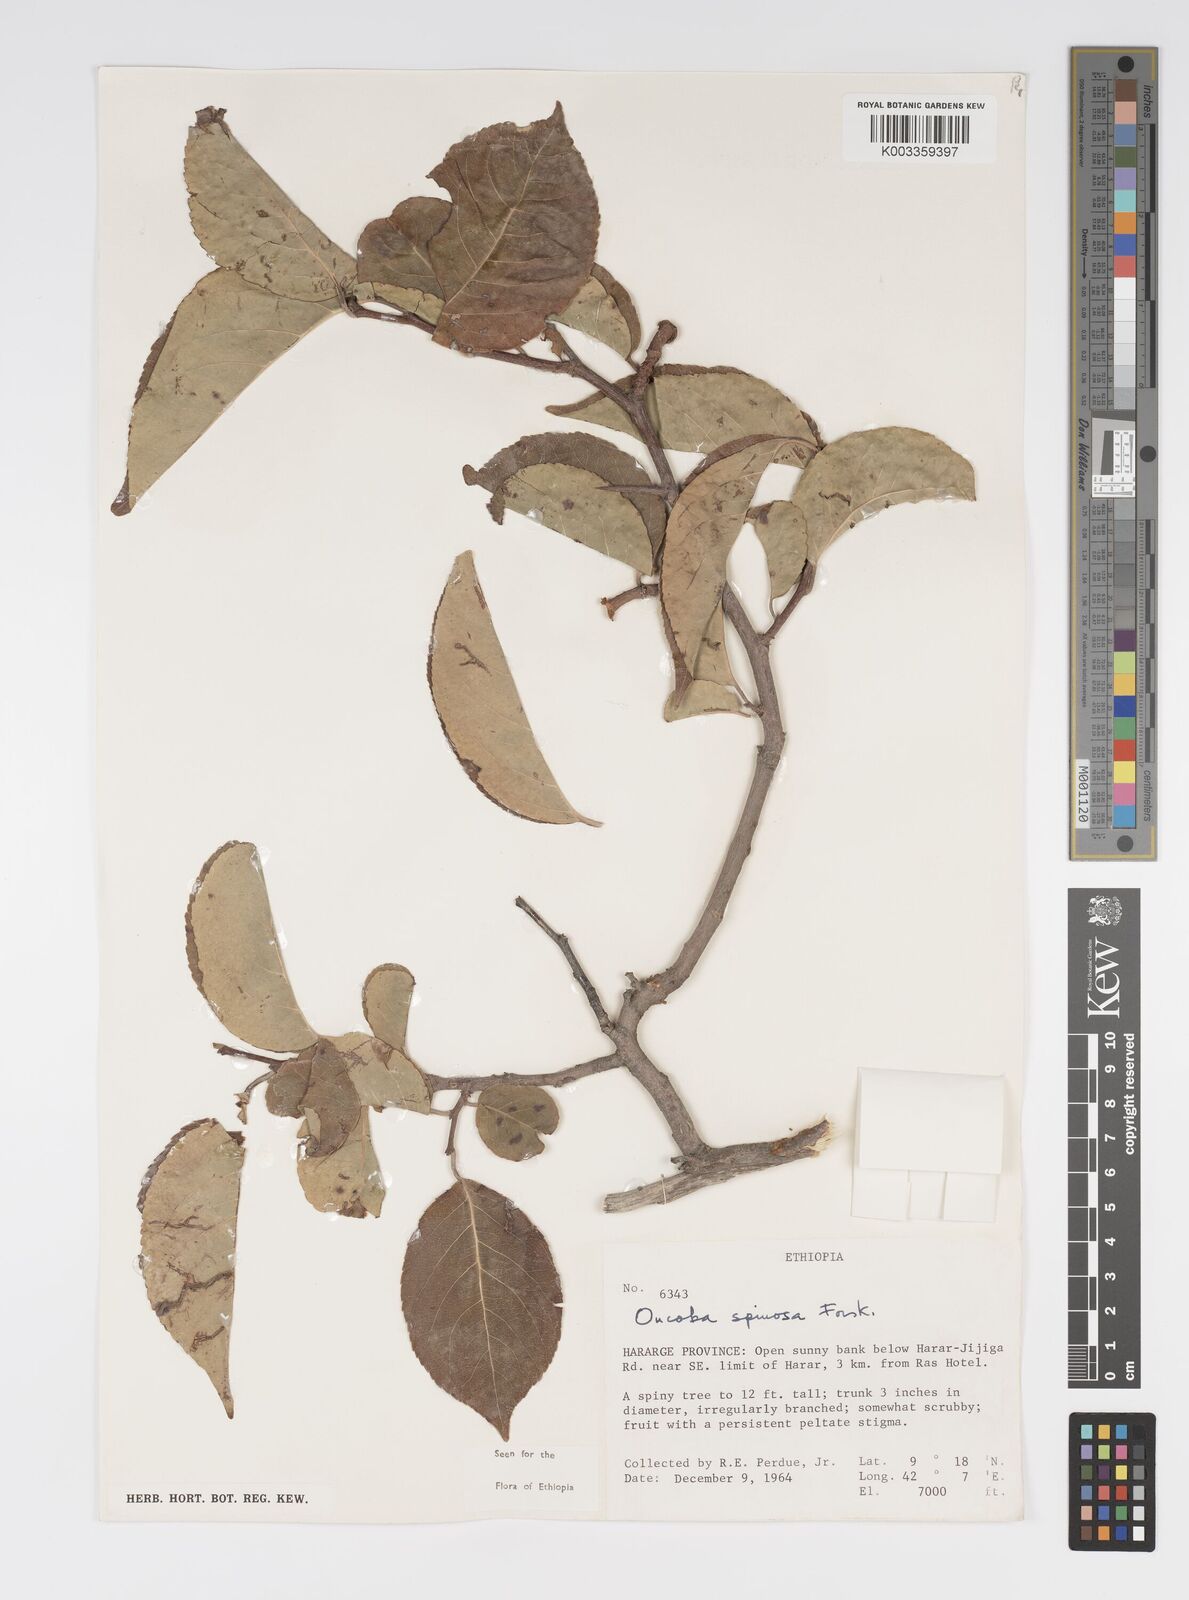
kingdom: Plantae
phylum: Tracheophyta
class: Magnoliopsida
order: Malpighiales
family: Salicaceae
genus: Oncoba
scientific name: Oncoba spinosa
